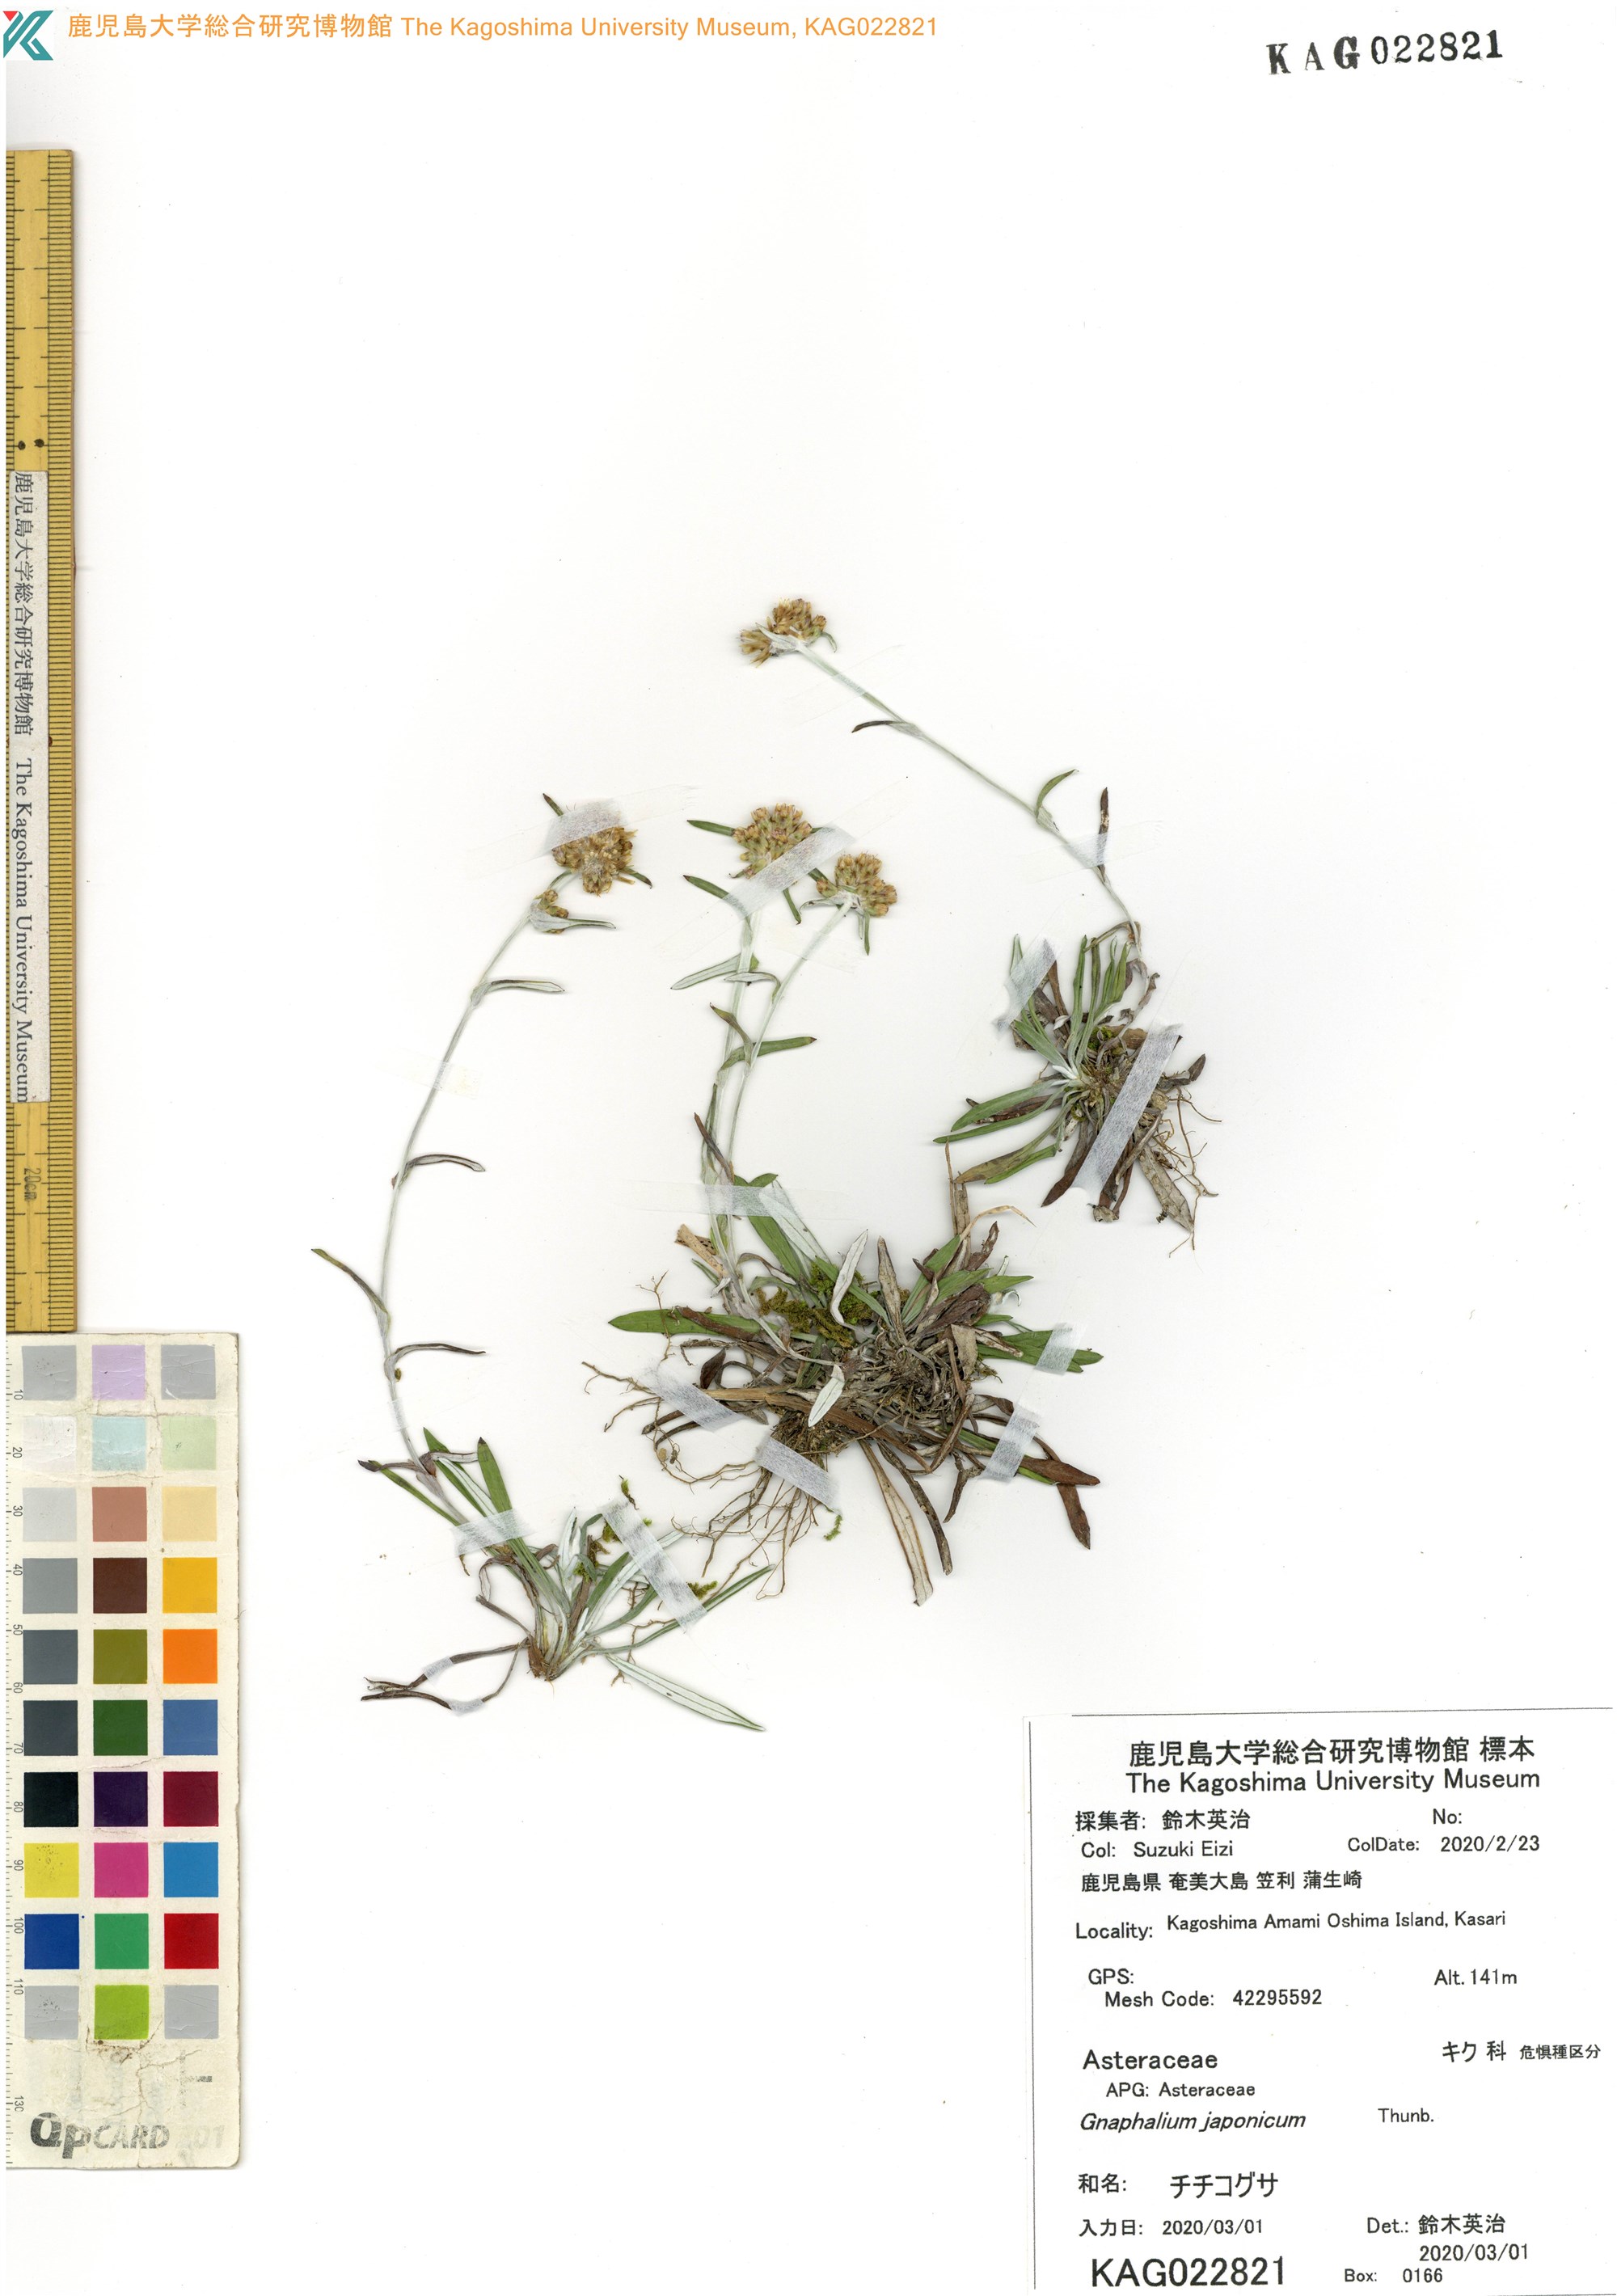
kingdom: Plantae
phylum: Tracheophyta
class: Magnoliopsida
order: Asterales
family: Asteraceae
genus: Euchiton
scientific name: Euchiton japonicus
